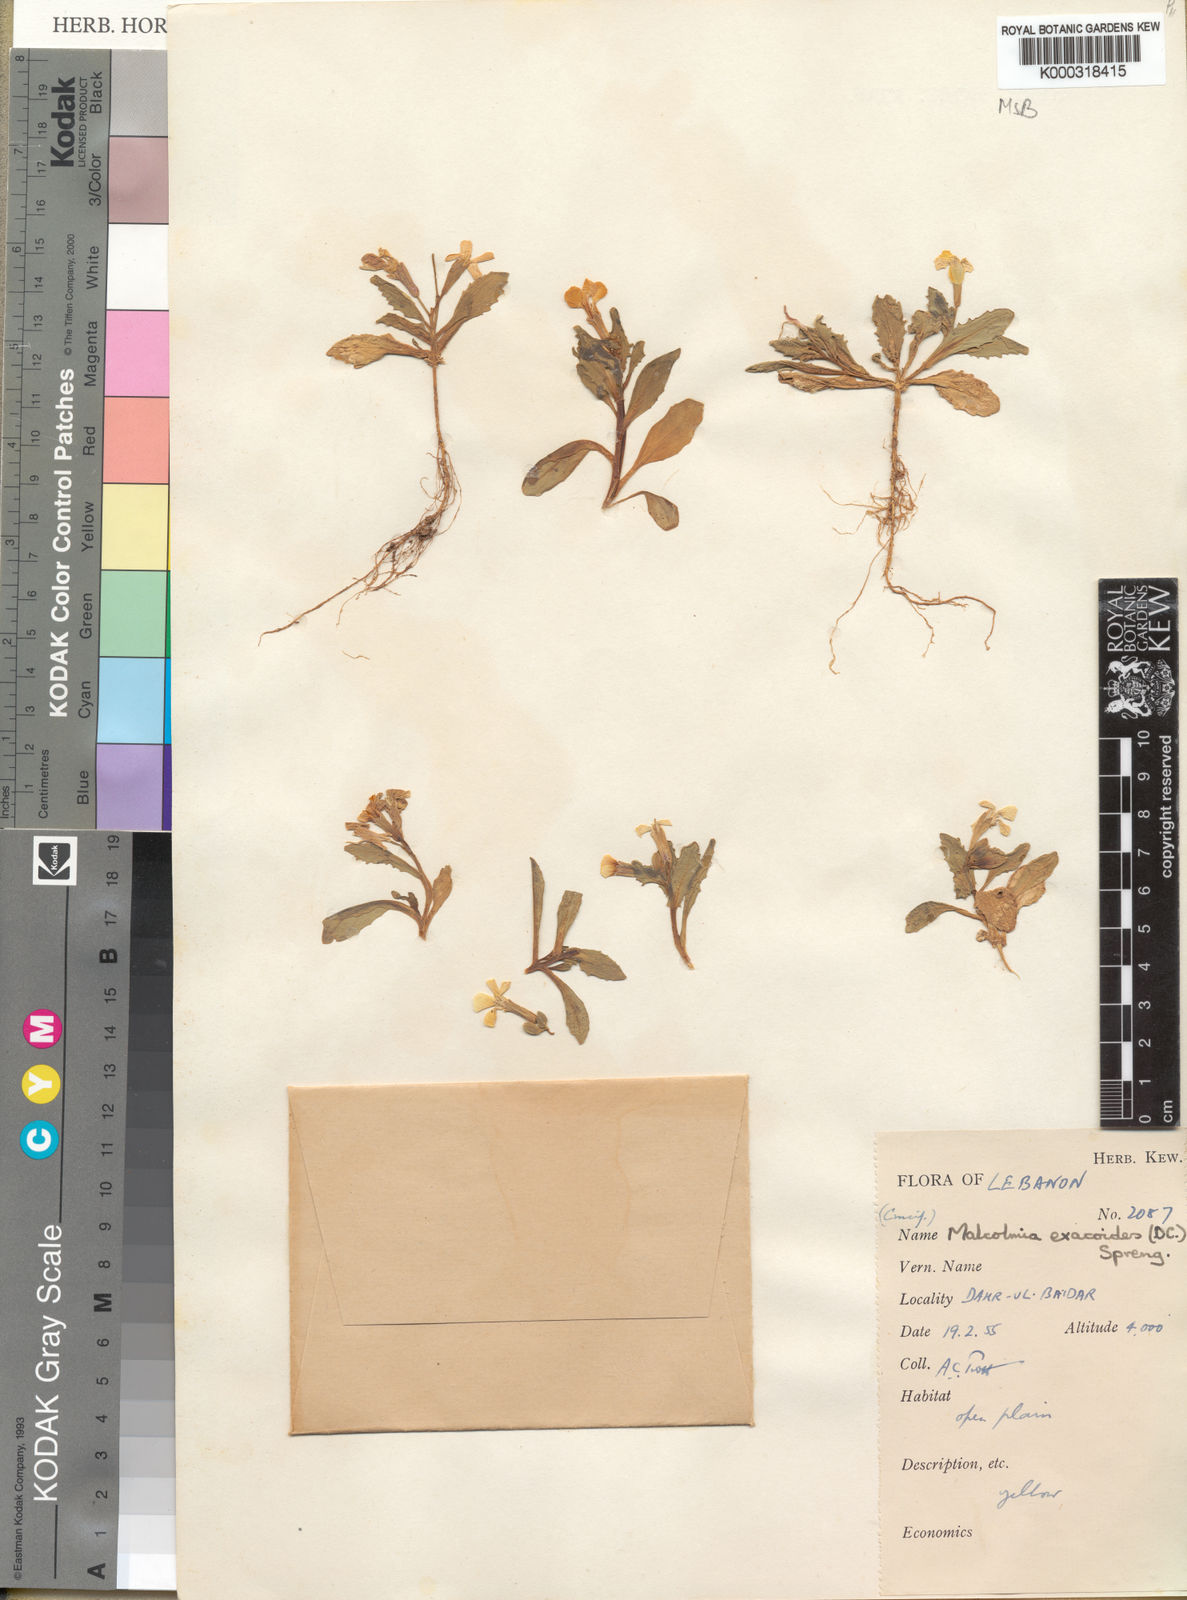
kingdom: Plantae
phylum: Tracheophyta
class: Magnoliopsida
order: Brassicales
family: Brassicaceae
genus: Zuvanda
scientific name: Zuvanda exacoides
